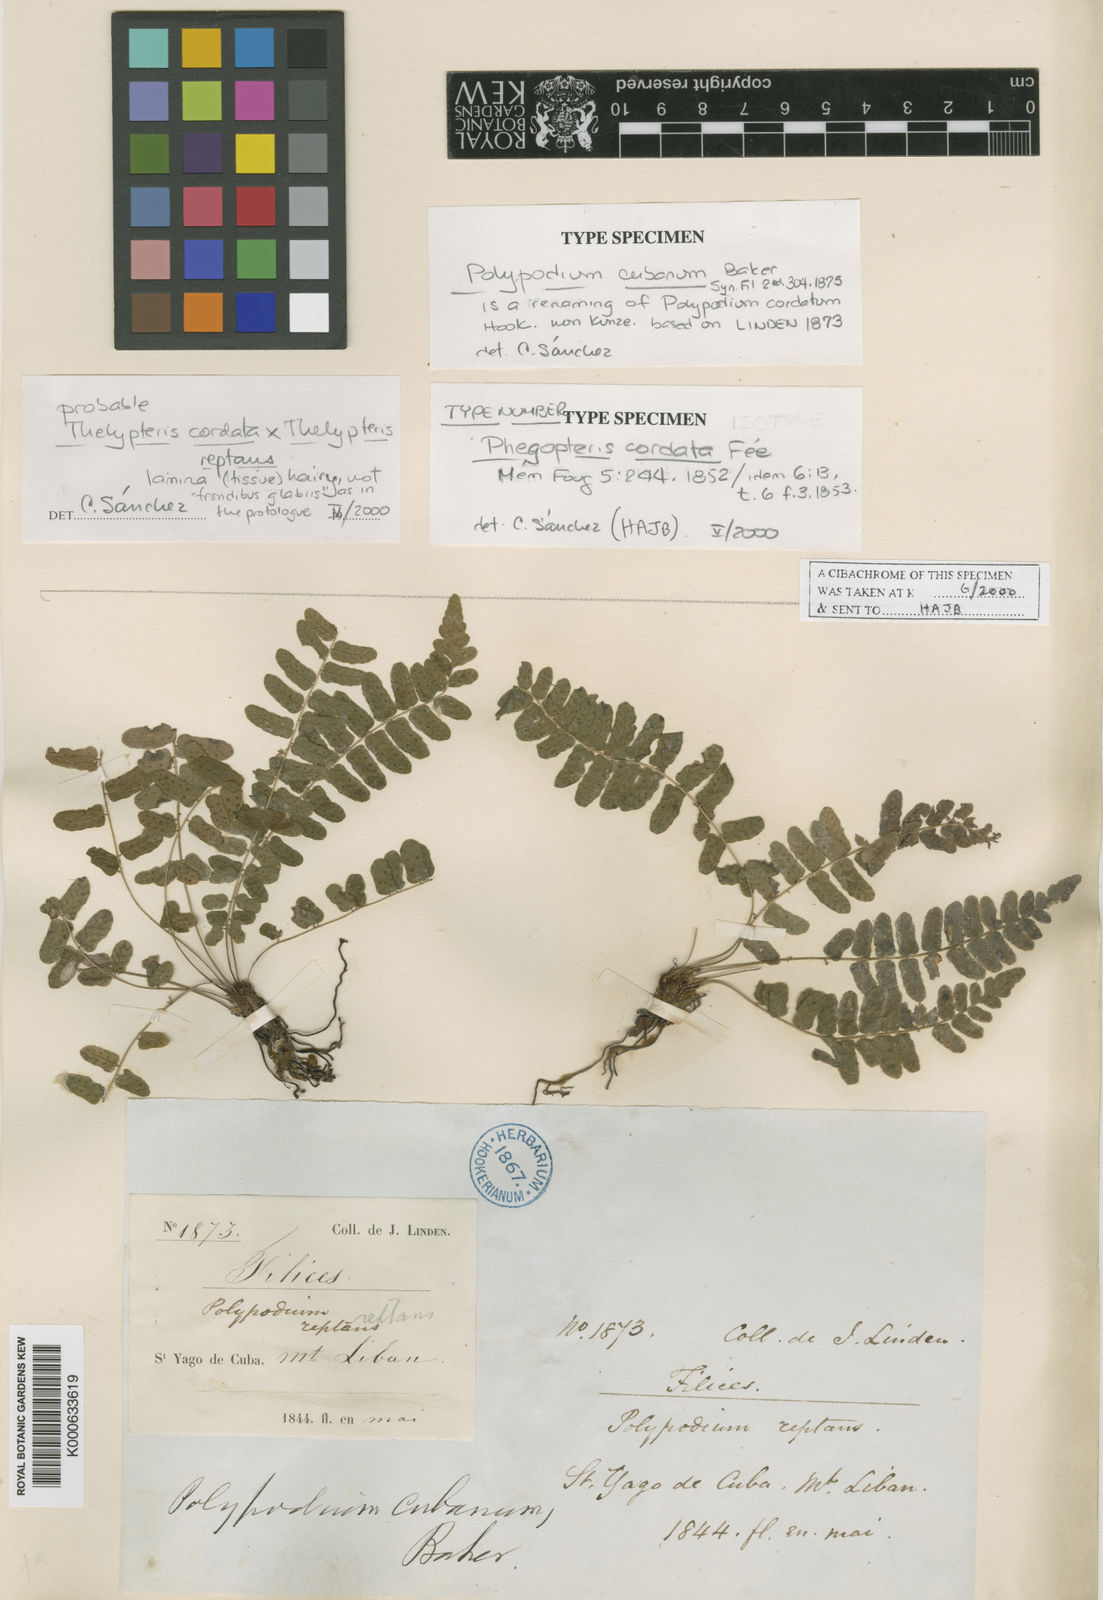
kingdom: Plantae
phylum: Tracheophyta
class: Polypodiopsida
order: Polypodiales
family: Thelypteridaceae
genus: Goniopteris
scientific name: Goniopteris
